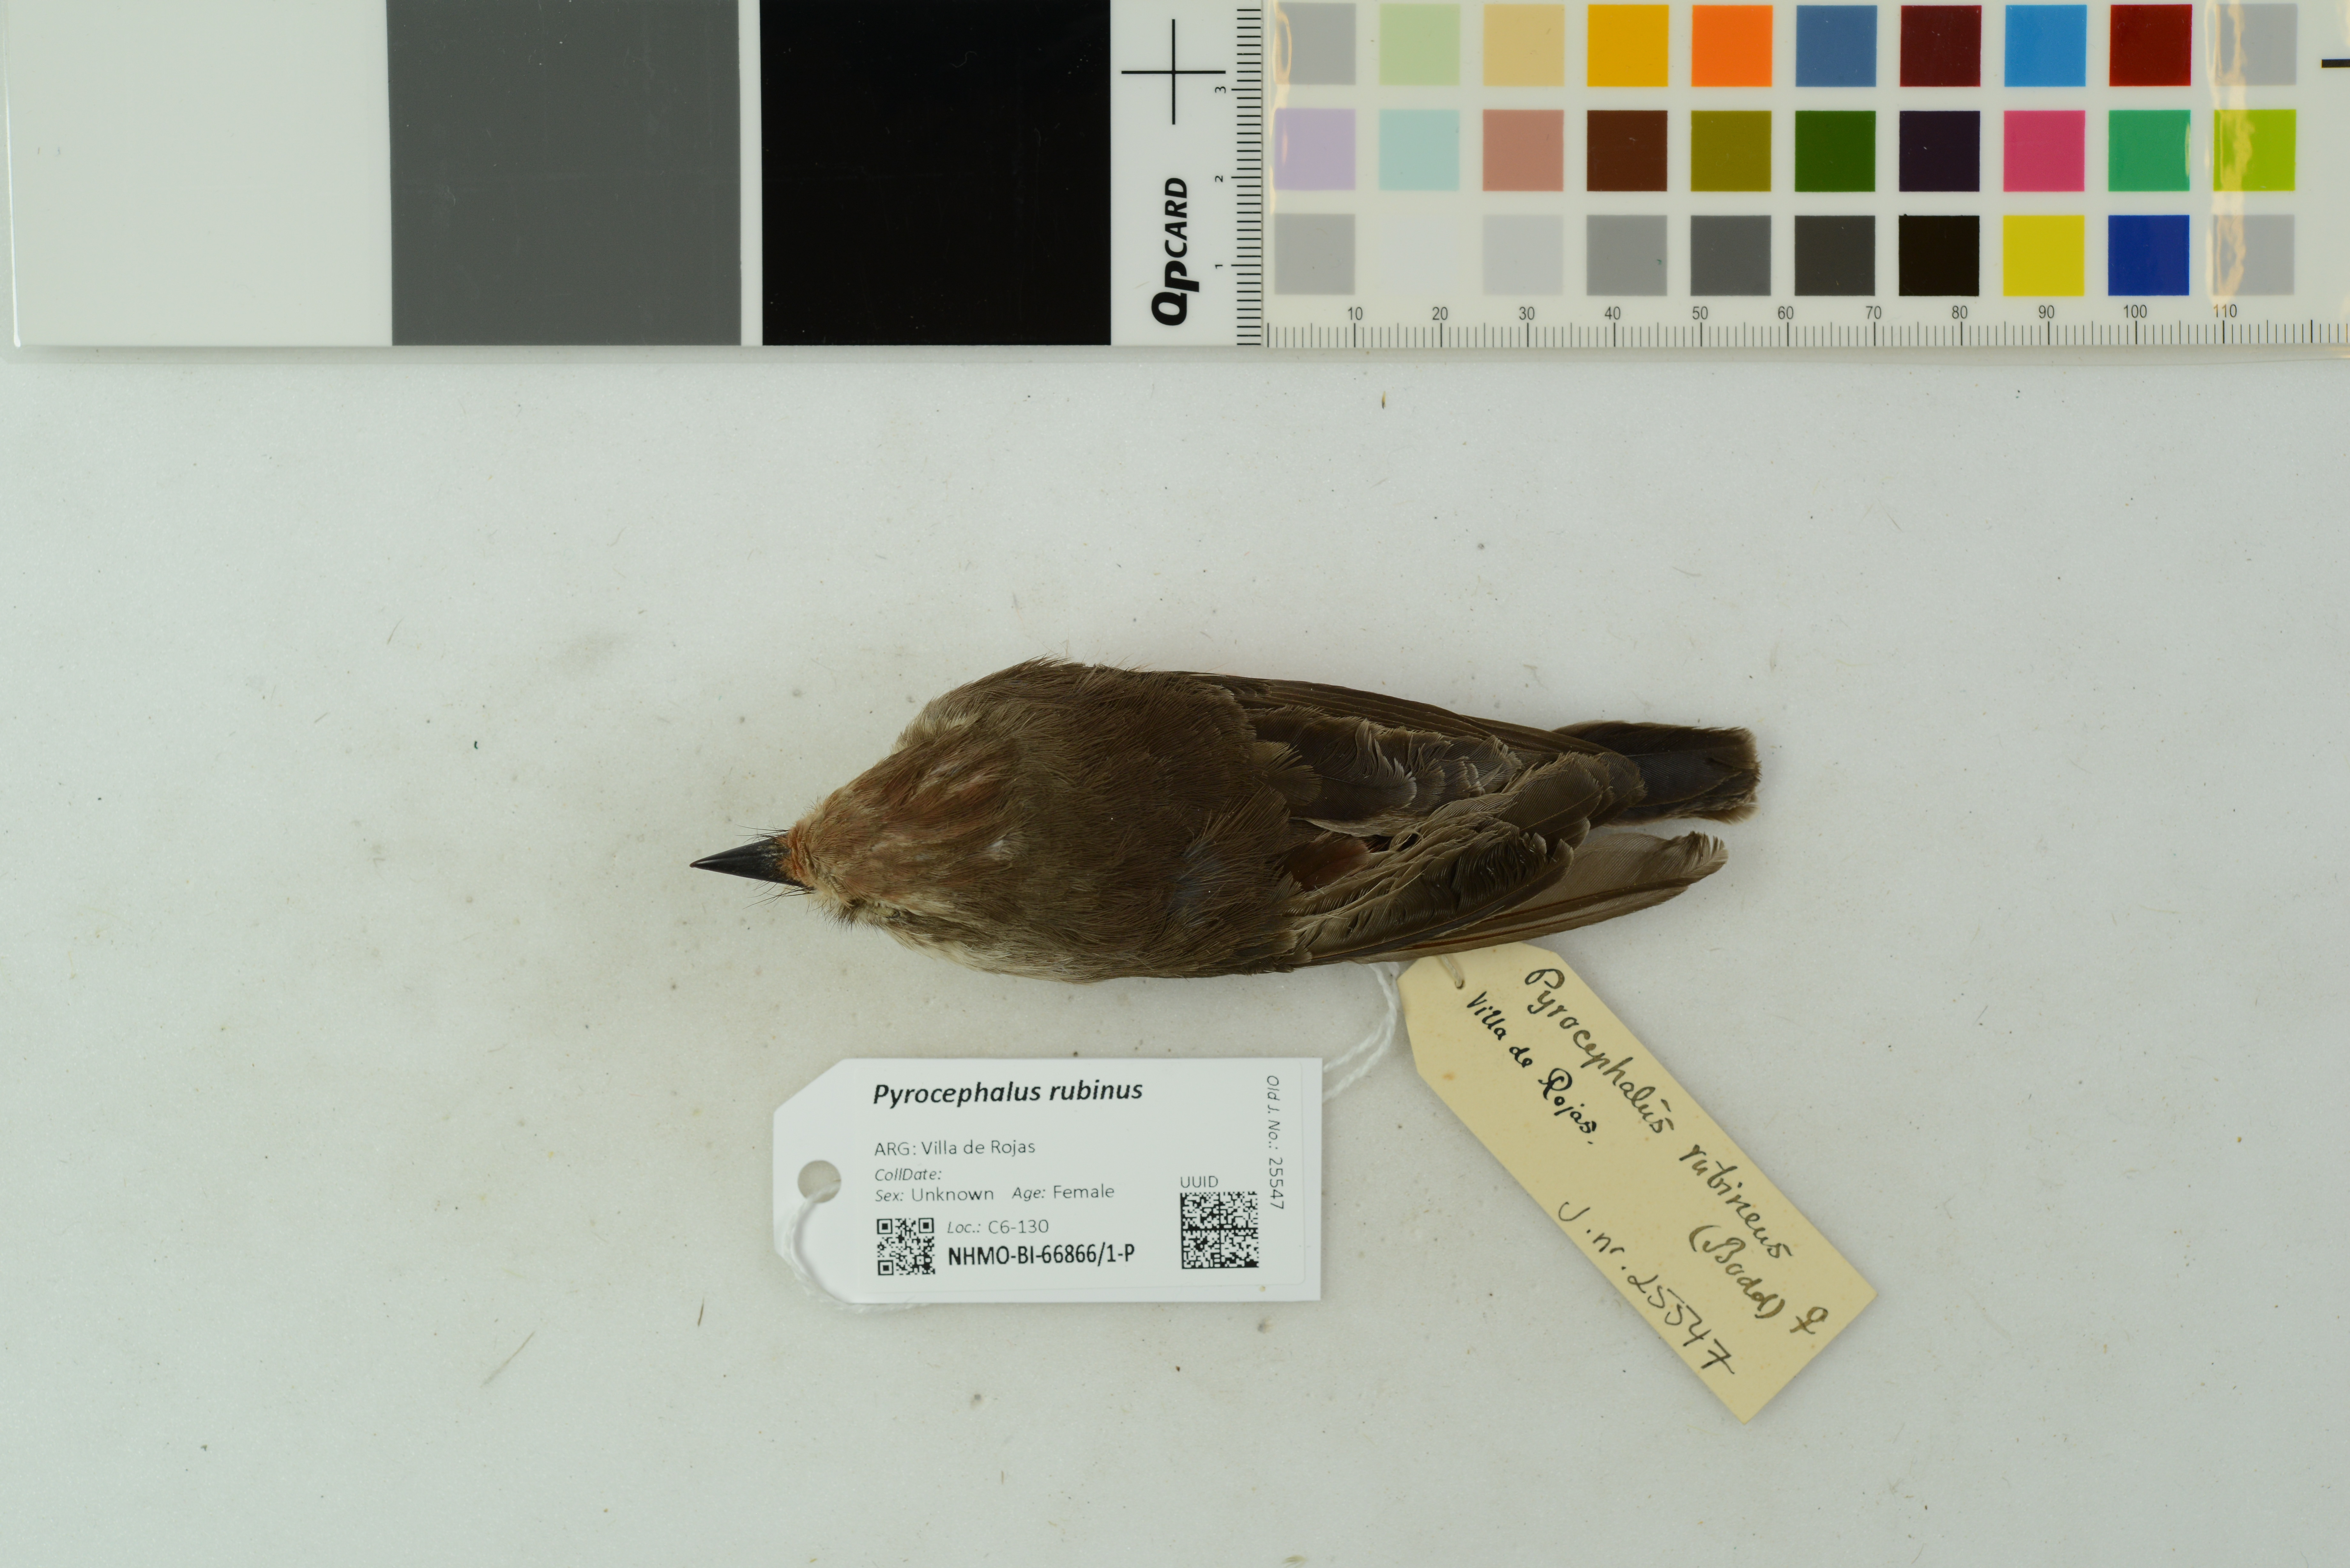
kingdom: Animalia
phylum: Chordata
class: Aves
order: Passeriformes
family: Tyrannidae
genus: Pyrocephalus
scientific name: Pyrocephalus rubinus
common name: Vermilion flycatcher
